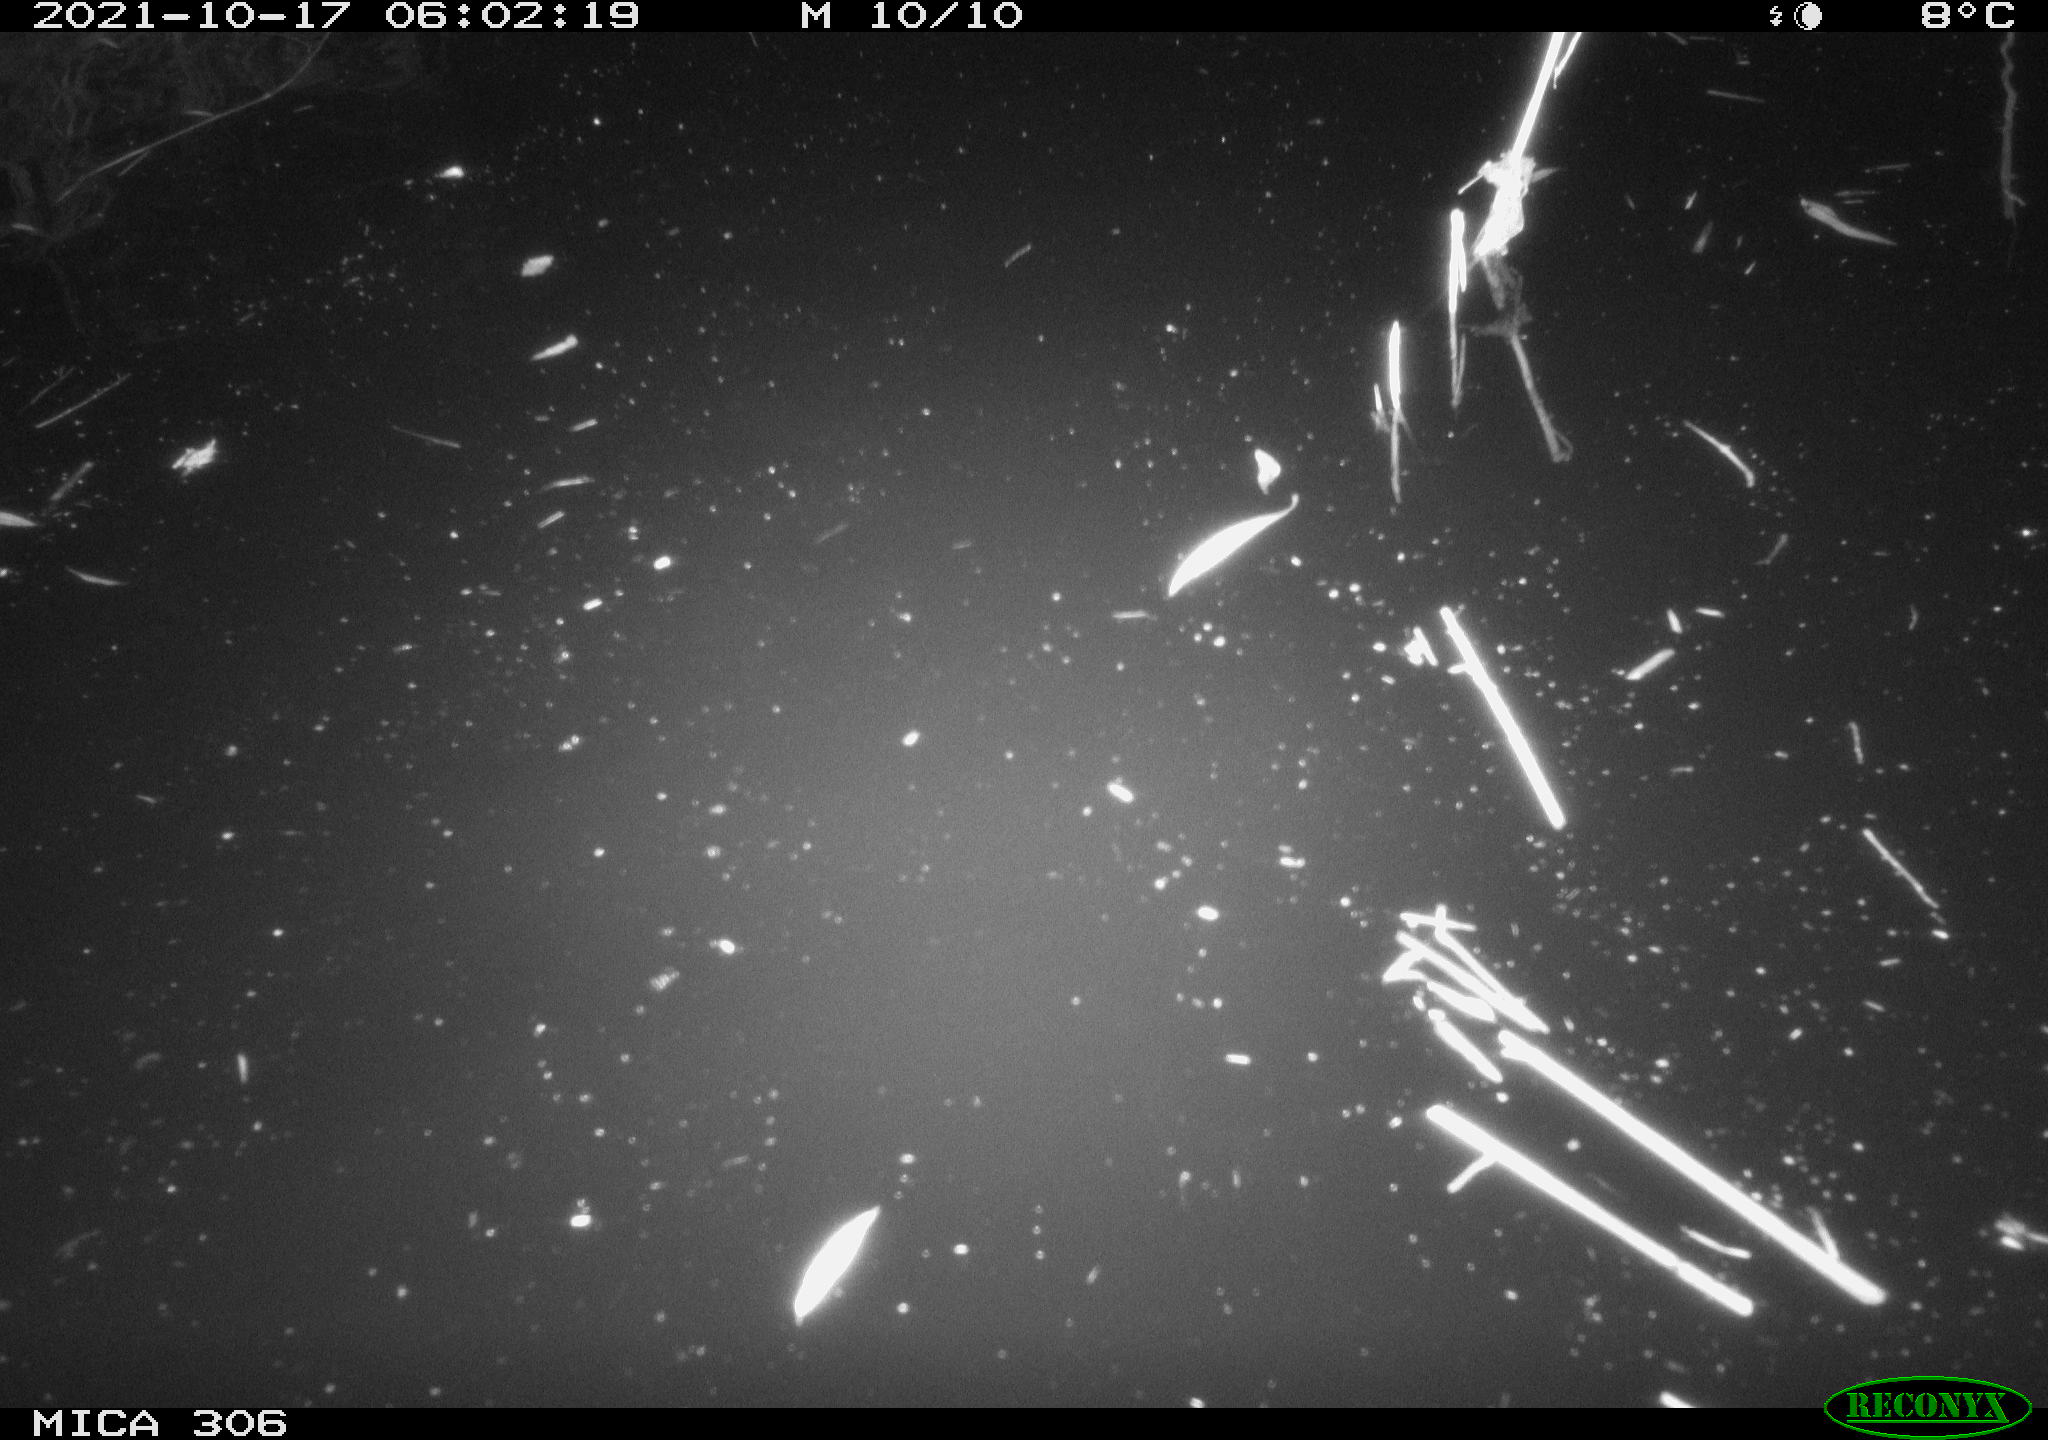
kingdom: Animalia
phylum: Chordata
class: Mammalia
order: Rodentia
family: Cricetidae
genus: Ondatra
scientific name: Ondatra zibethicus
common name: Muskrat
